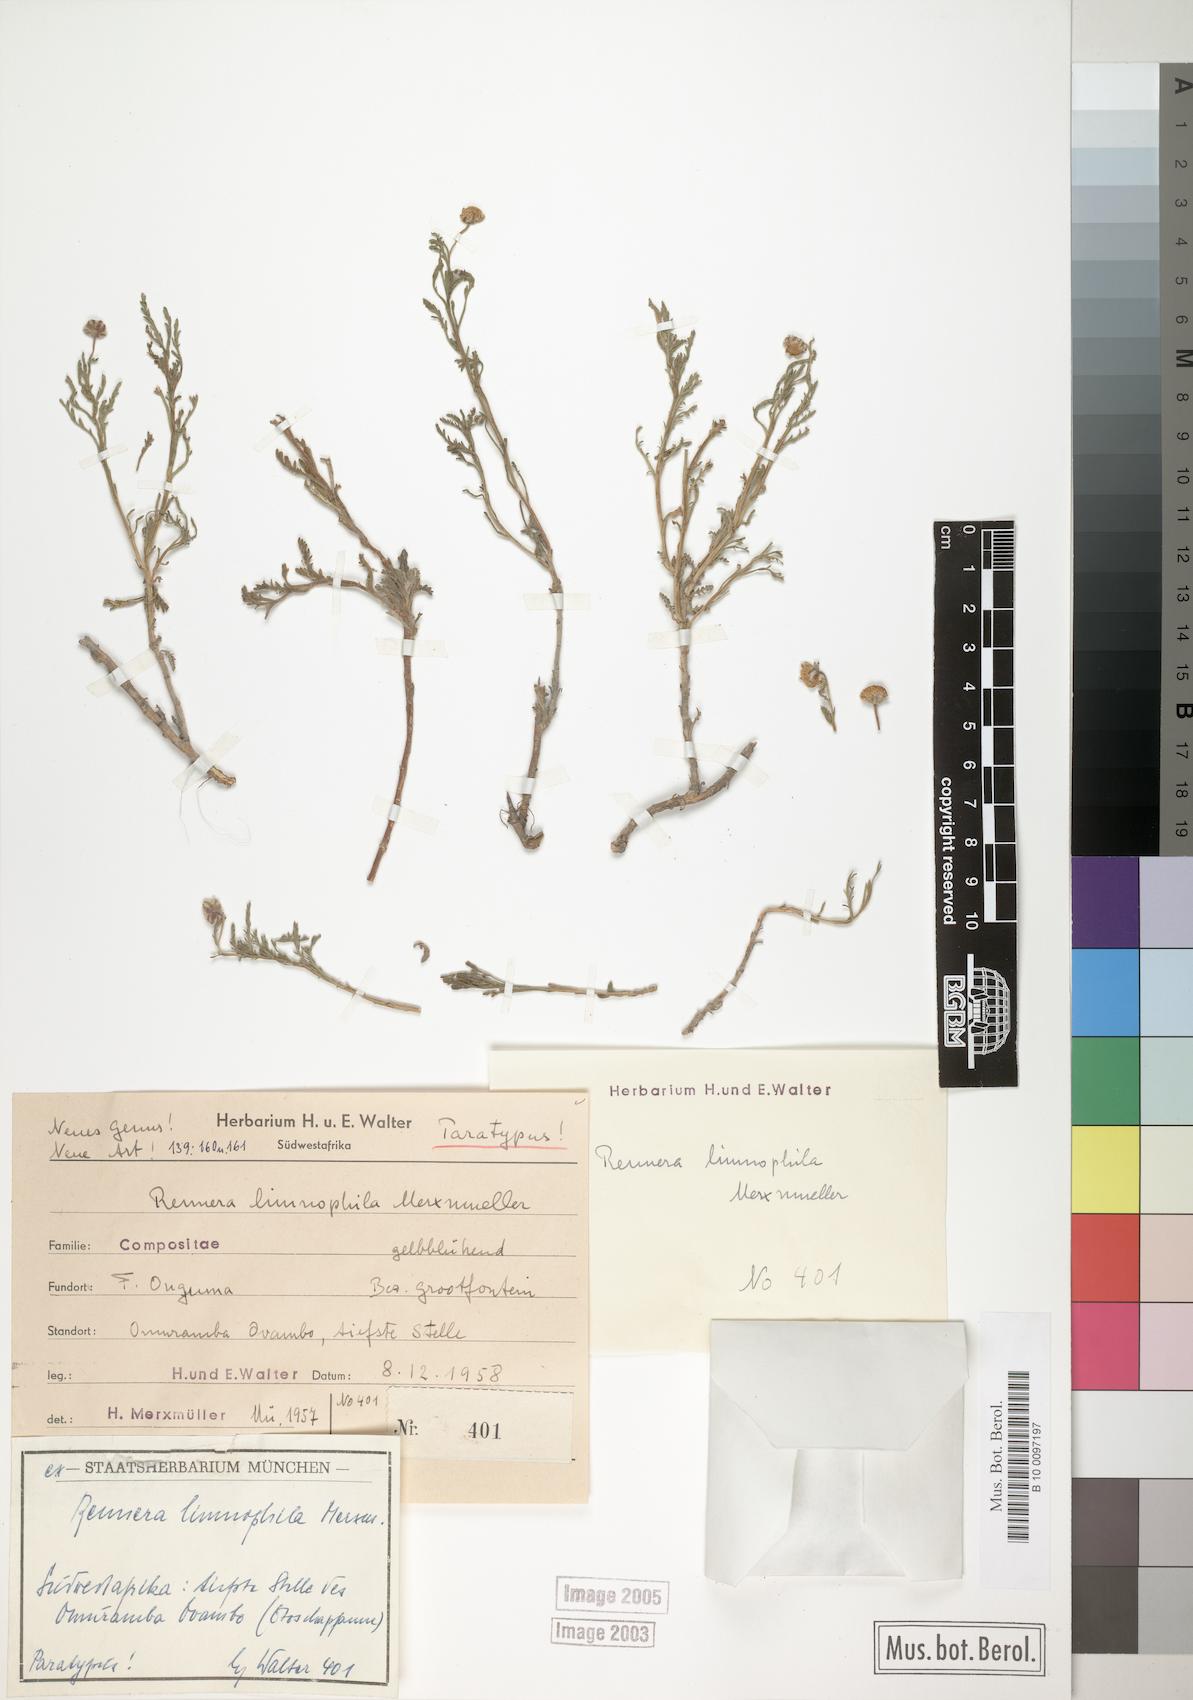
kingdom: Plantae
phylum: Tracheophyta
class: Magnoliopsida
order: Asterales
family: Asteraceae
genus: Pentzia
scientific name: Pentzia limnophila
